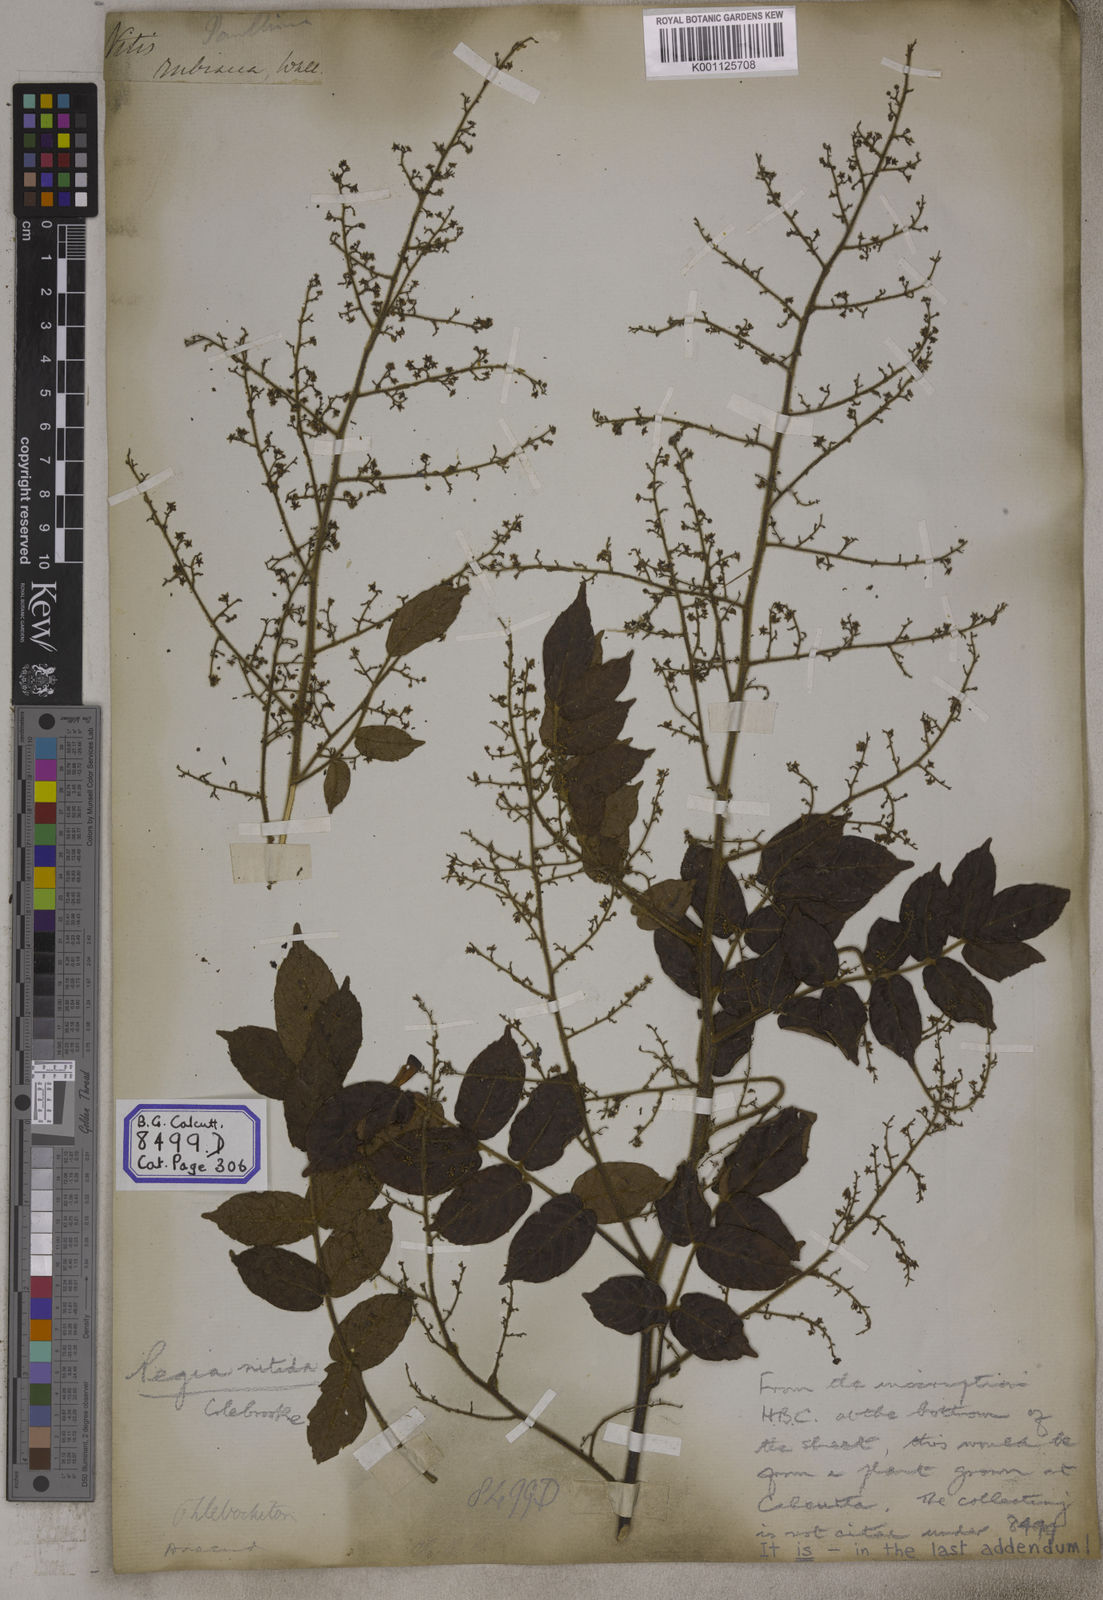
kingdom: Plantae
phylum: Tracheophyta
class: Magnoliopsida
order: Sapindales
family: Anacardiaceae
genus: Pegia
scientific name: Pegia nitida
